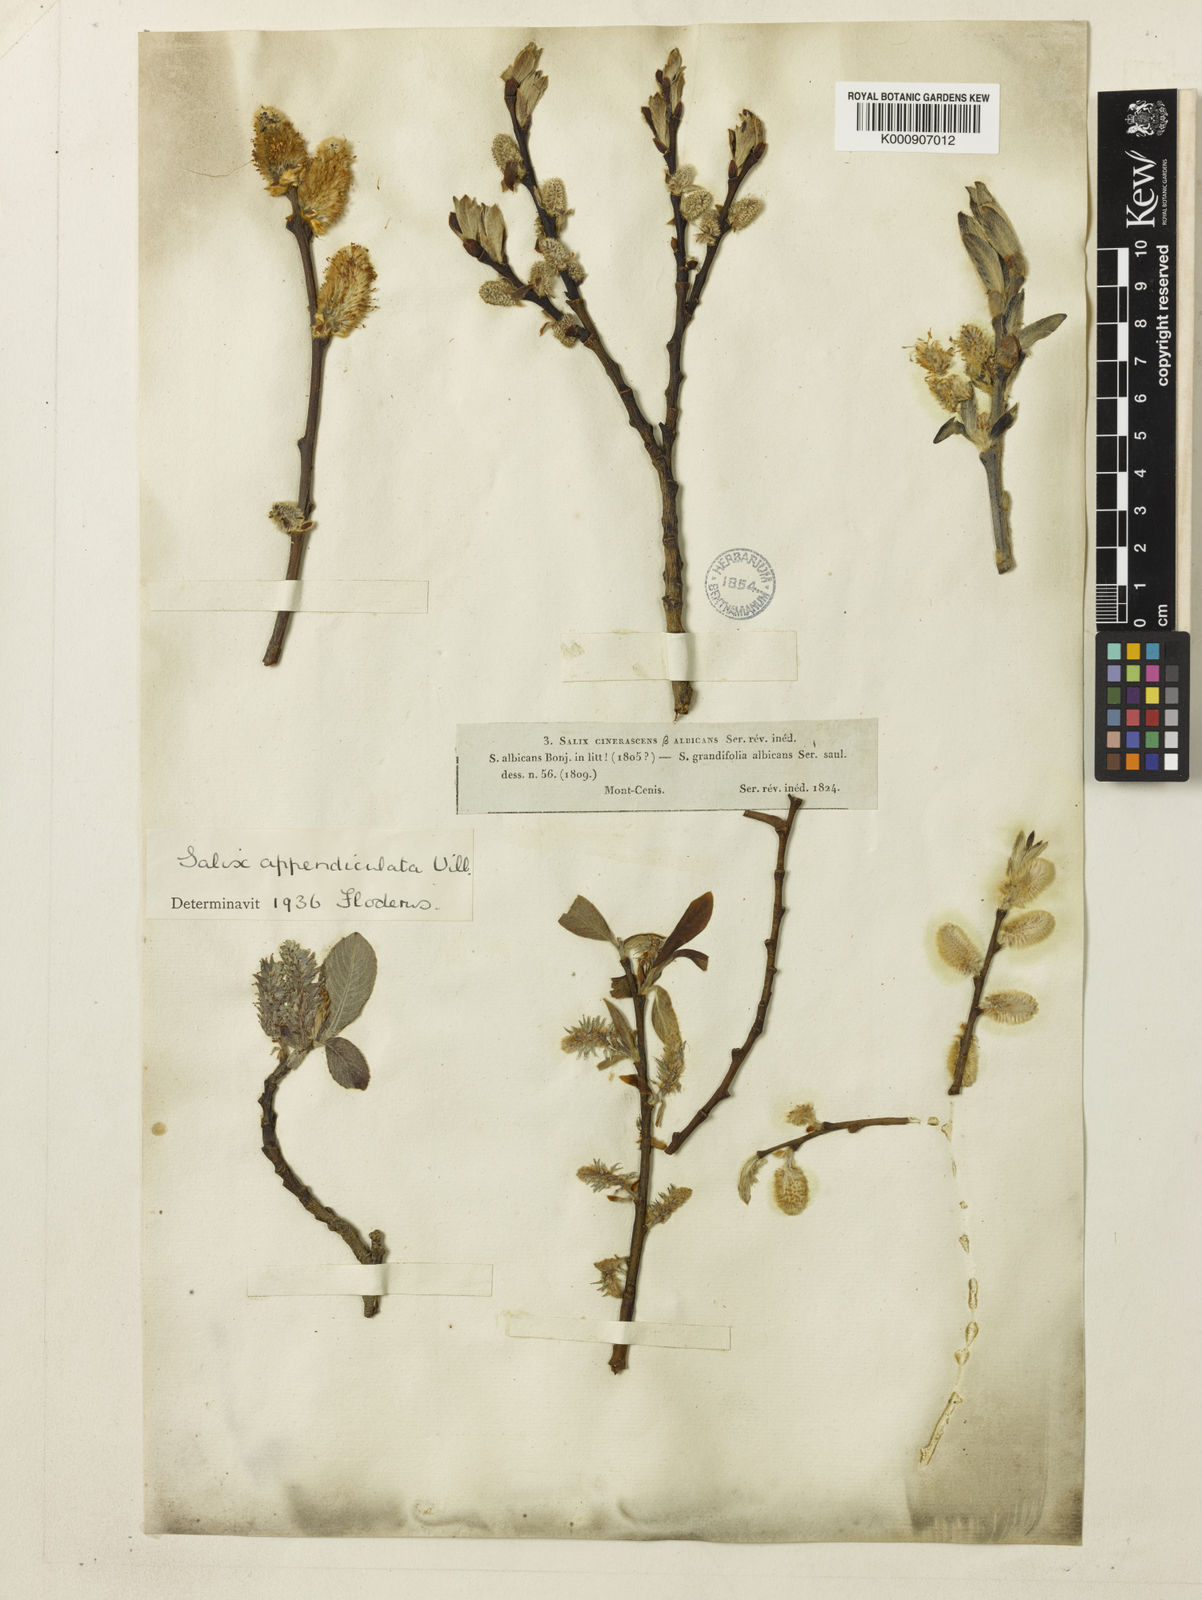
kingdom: Plantae
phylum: Tracheophyta
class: Magnoliopsida
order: Malpighiales
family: Salicaceae
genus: Salix
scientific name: Salix aurita
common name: Eared willow
